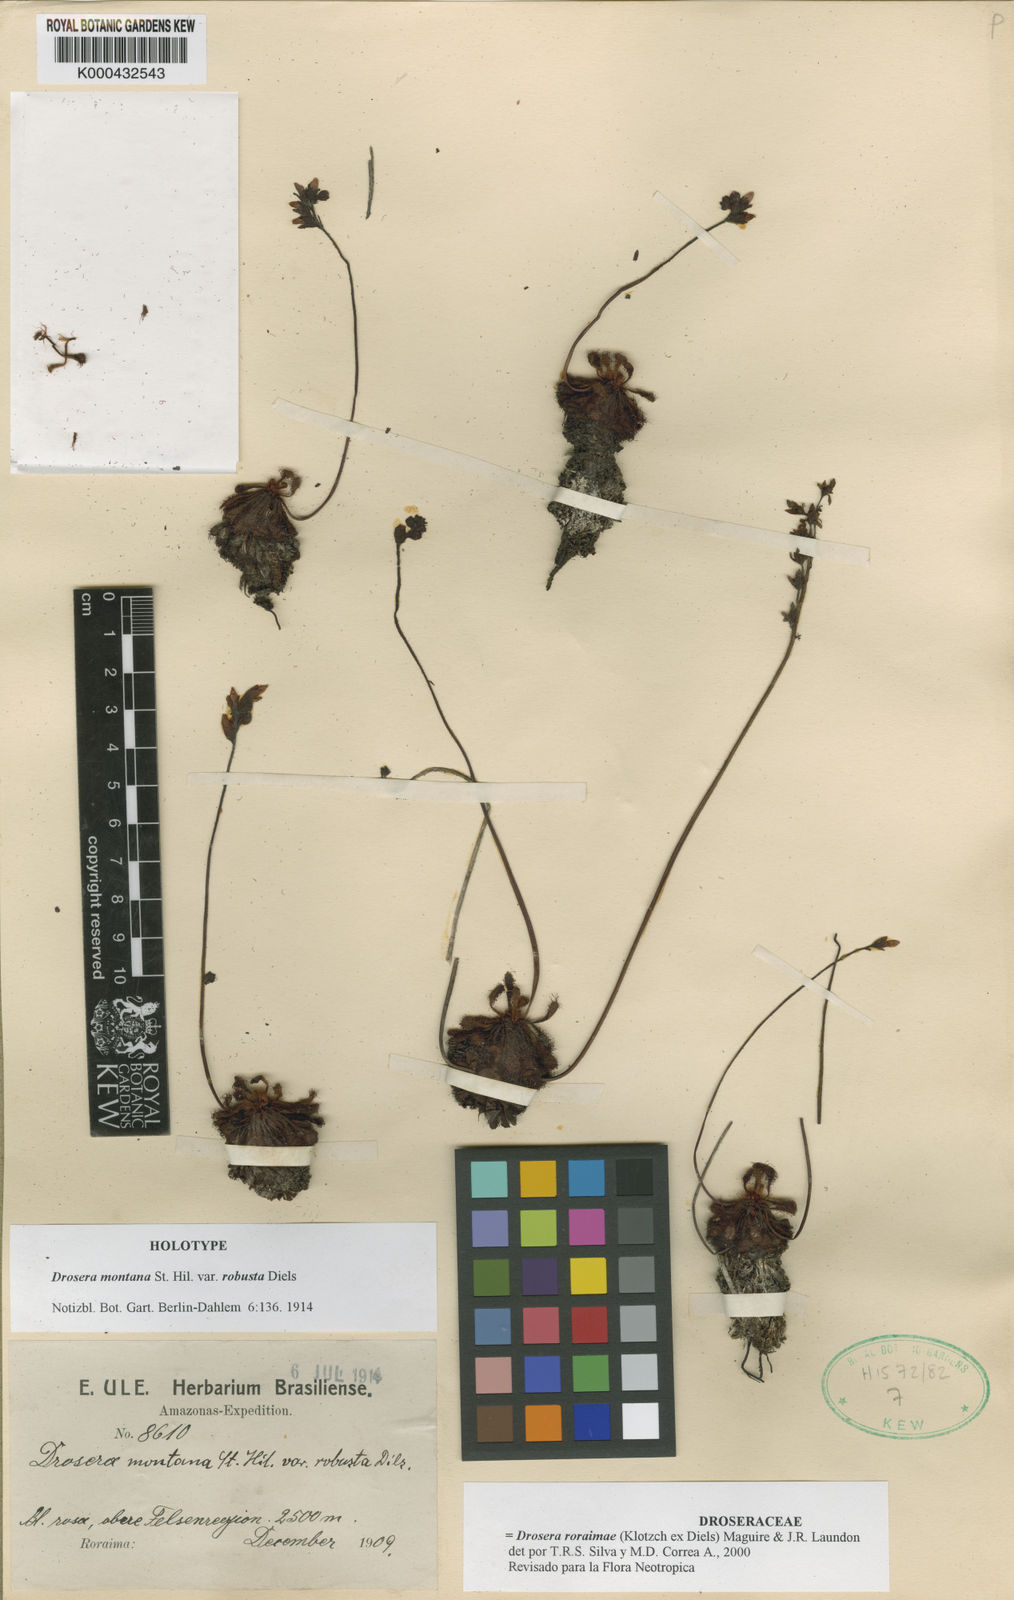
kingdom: Plantae
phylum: Tracheophyta
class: Magnoliopsida
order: Caryophyllales
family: Droseraceae
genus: Drosera
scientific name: Drosera roraimae
